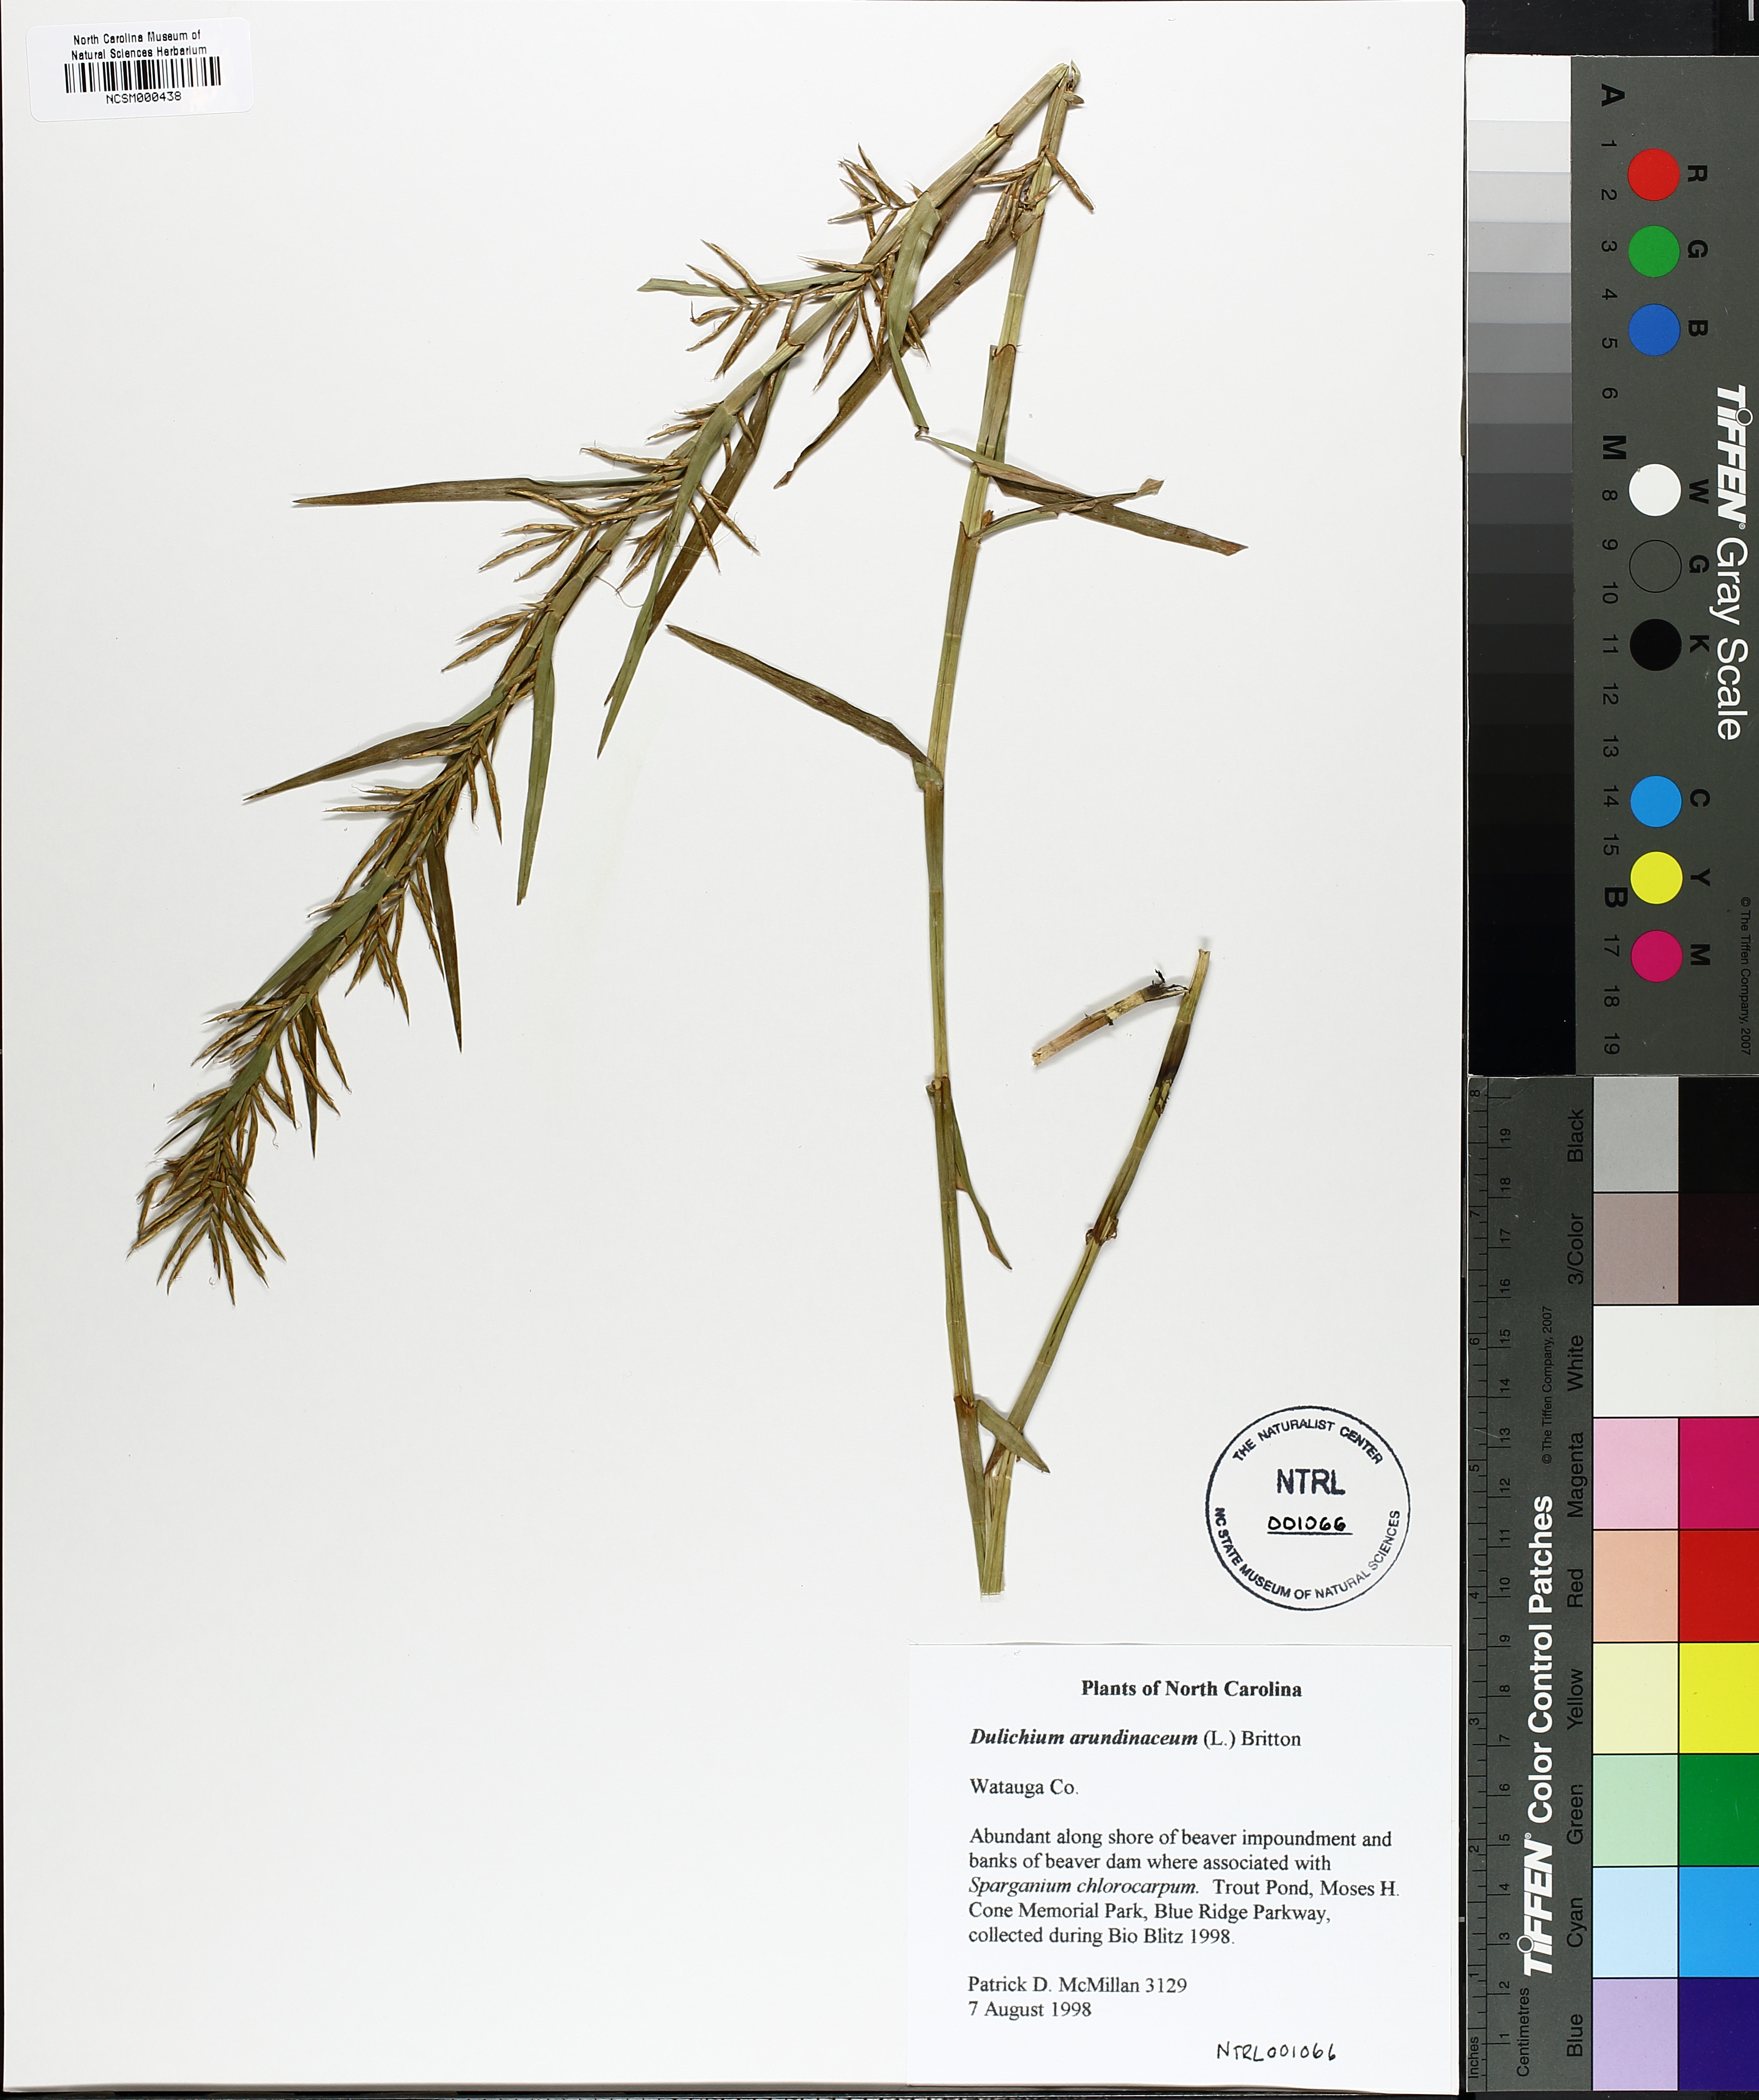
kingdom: Plantae
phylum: Tracheophyta
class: Liliopsida
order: Poales
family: Cyperaceae
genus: Dulichium
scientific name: Dulichium arundinaceum
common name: Three-way sedge
